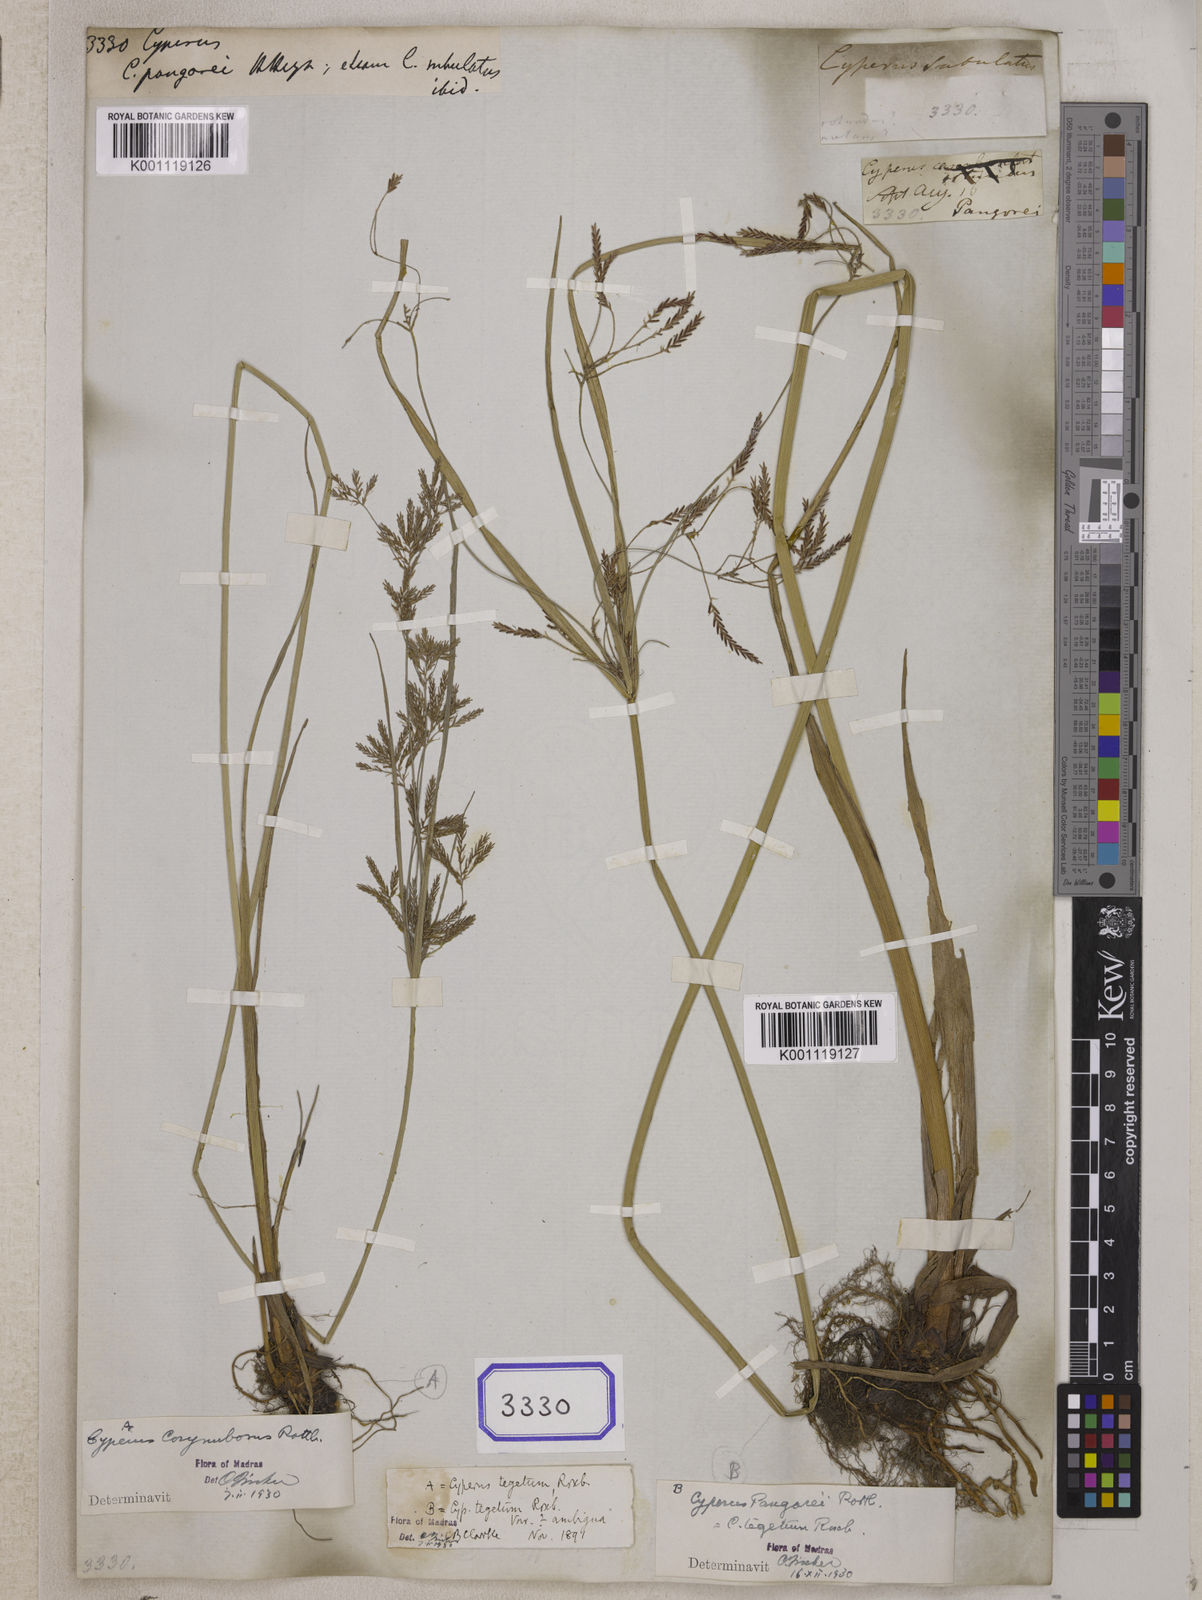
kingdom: Plantae
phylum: Tracheophyta
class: Liliopsida
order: Poales
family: Cyperaceae
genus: Cyperus
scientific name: Cyperus
